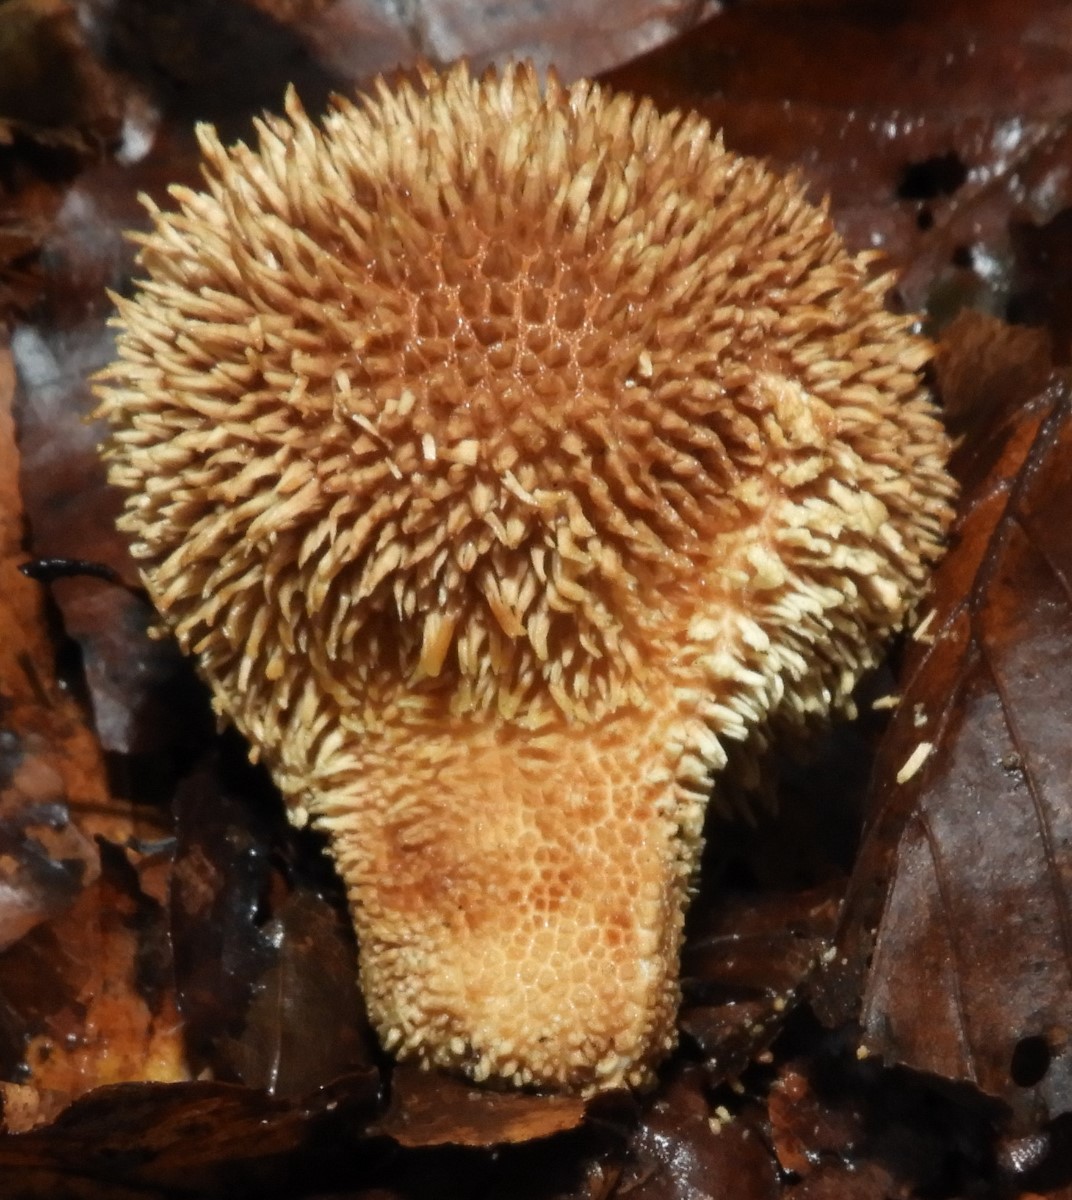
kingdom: Fungi
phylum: Basidiomycota
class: Agaricomycetes
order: Agaricales
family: Lycoperdaceae
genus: Lycoperdon
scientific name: Lycoperdon echinatum
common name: pindsvine-støvbold
